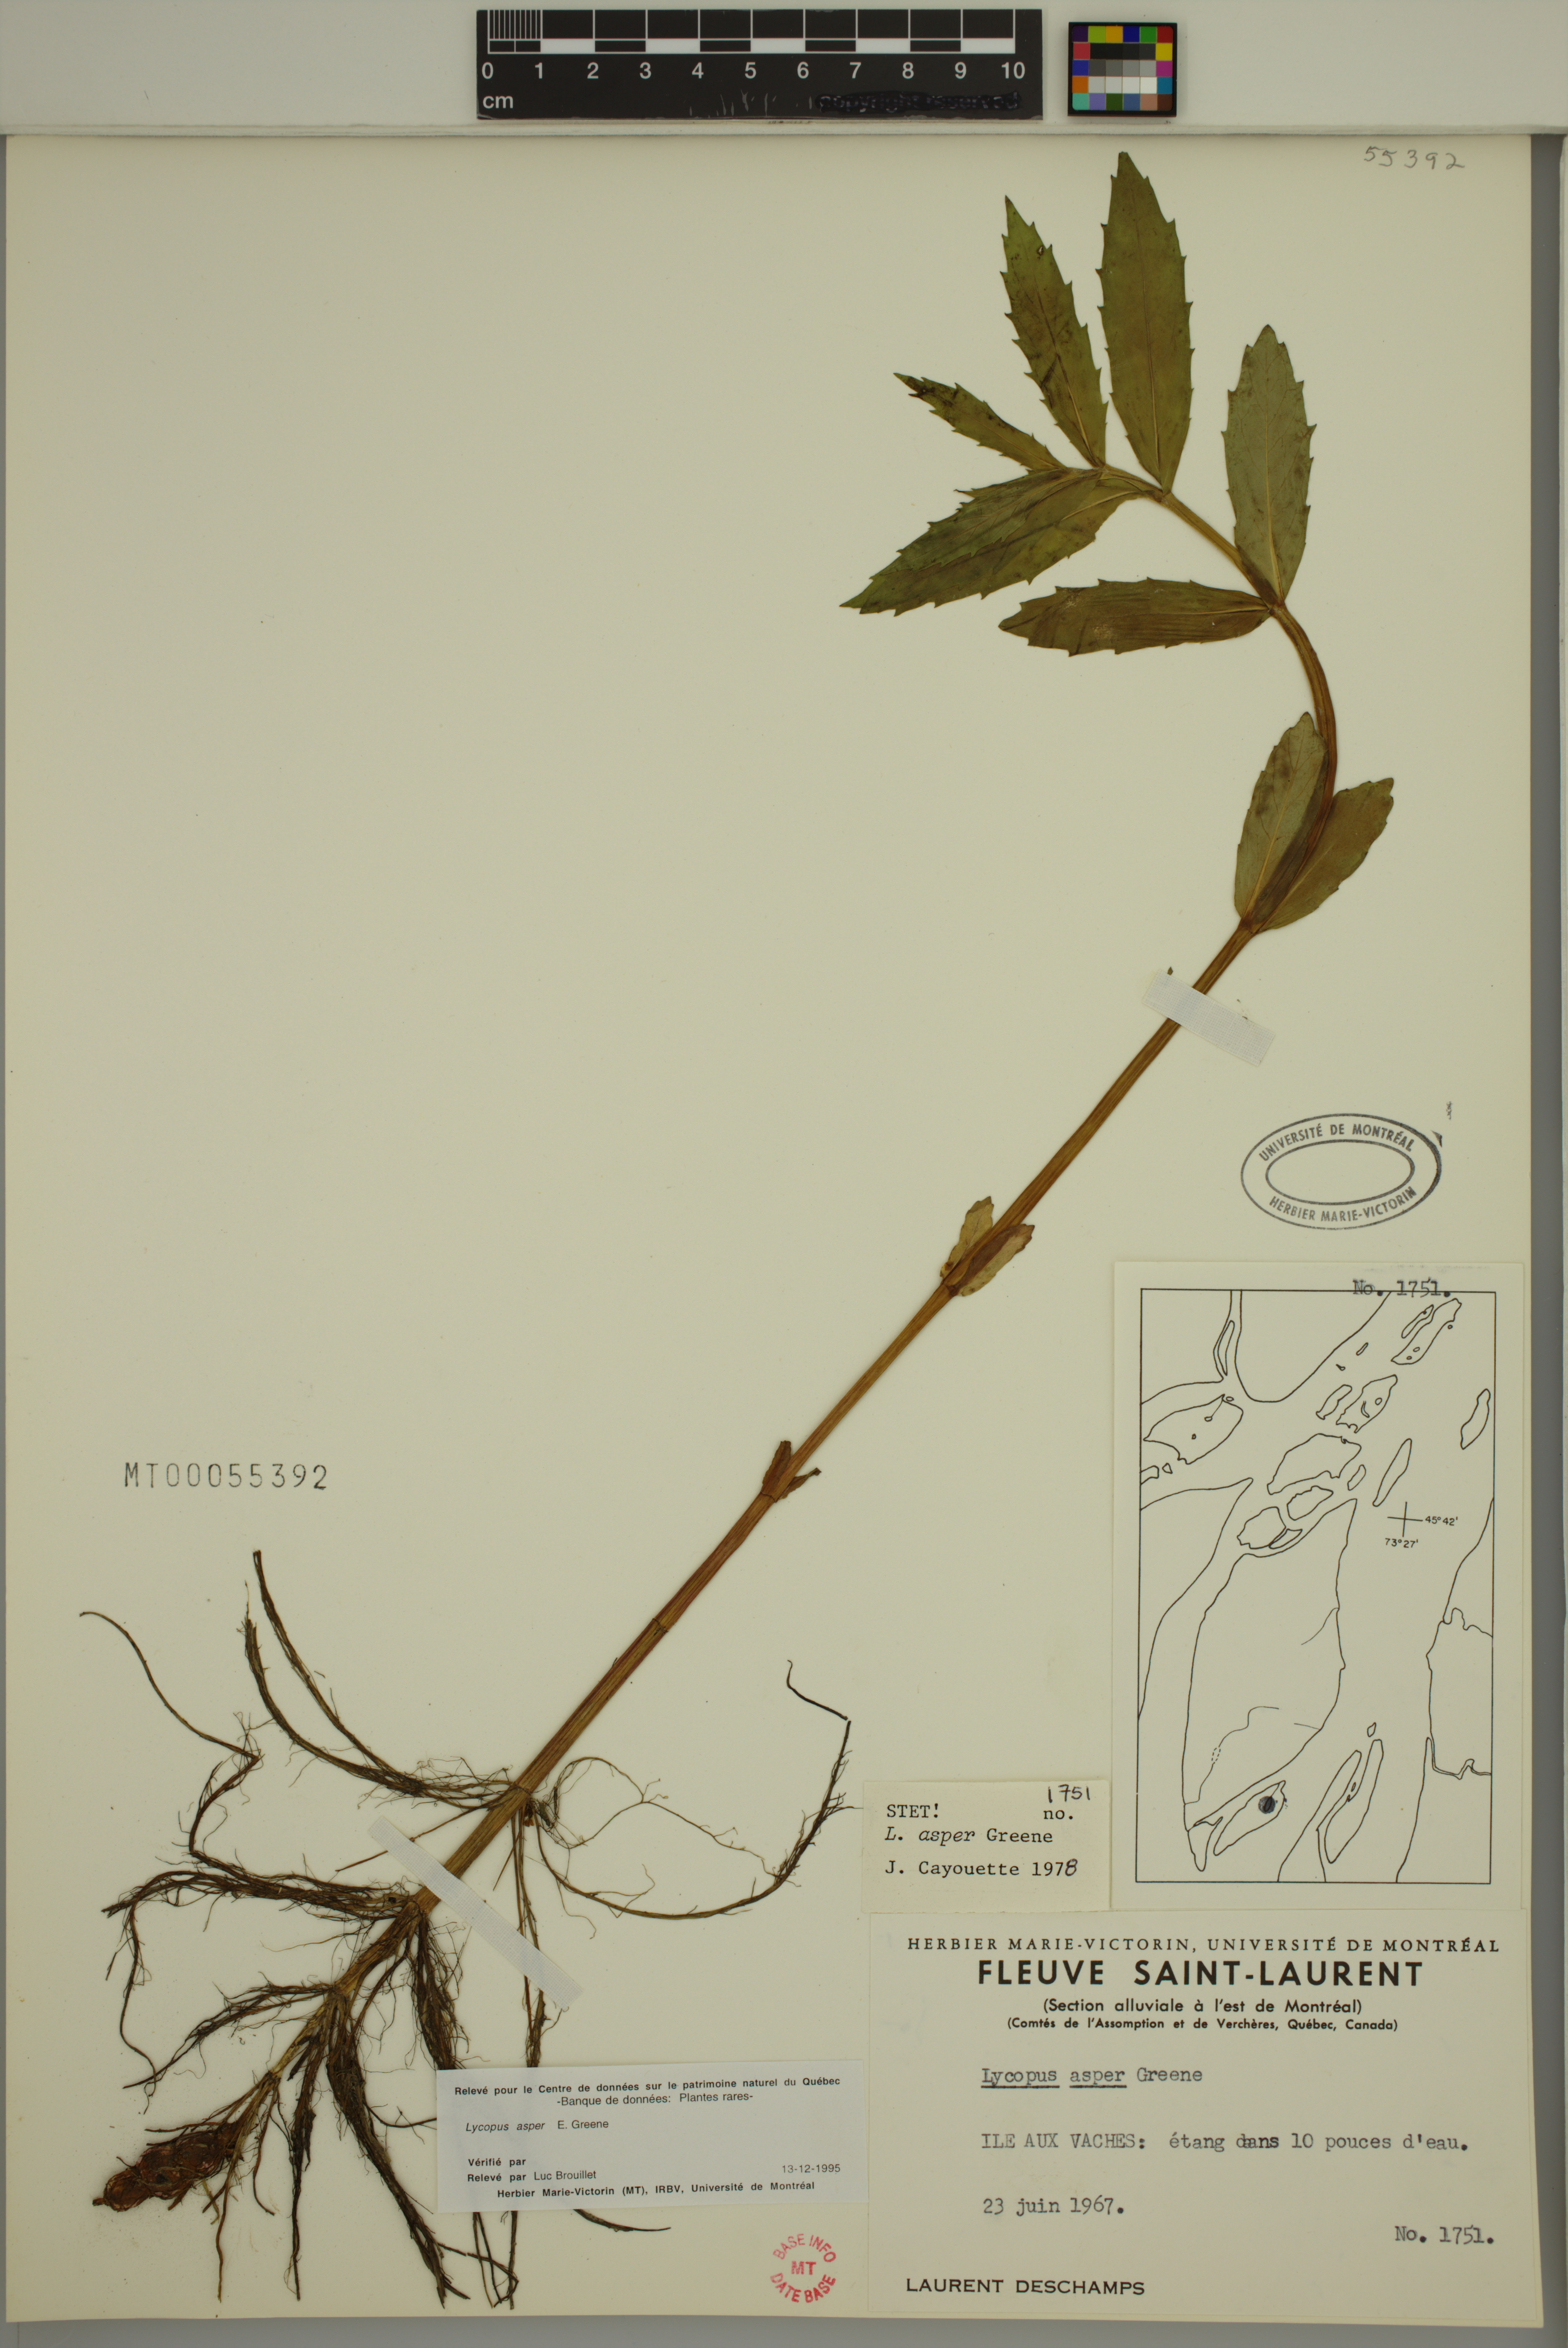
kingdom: Plantae
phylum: Tracheophyta
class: Magnoliopsida
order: Lamiales
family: Lamiaceae
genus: Lycopus
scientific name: Lycopus asper
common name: Rough water-horehound
